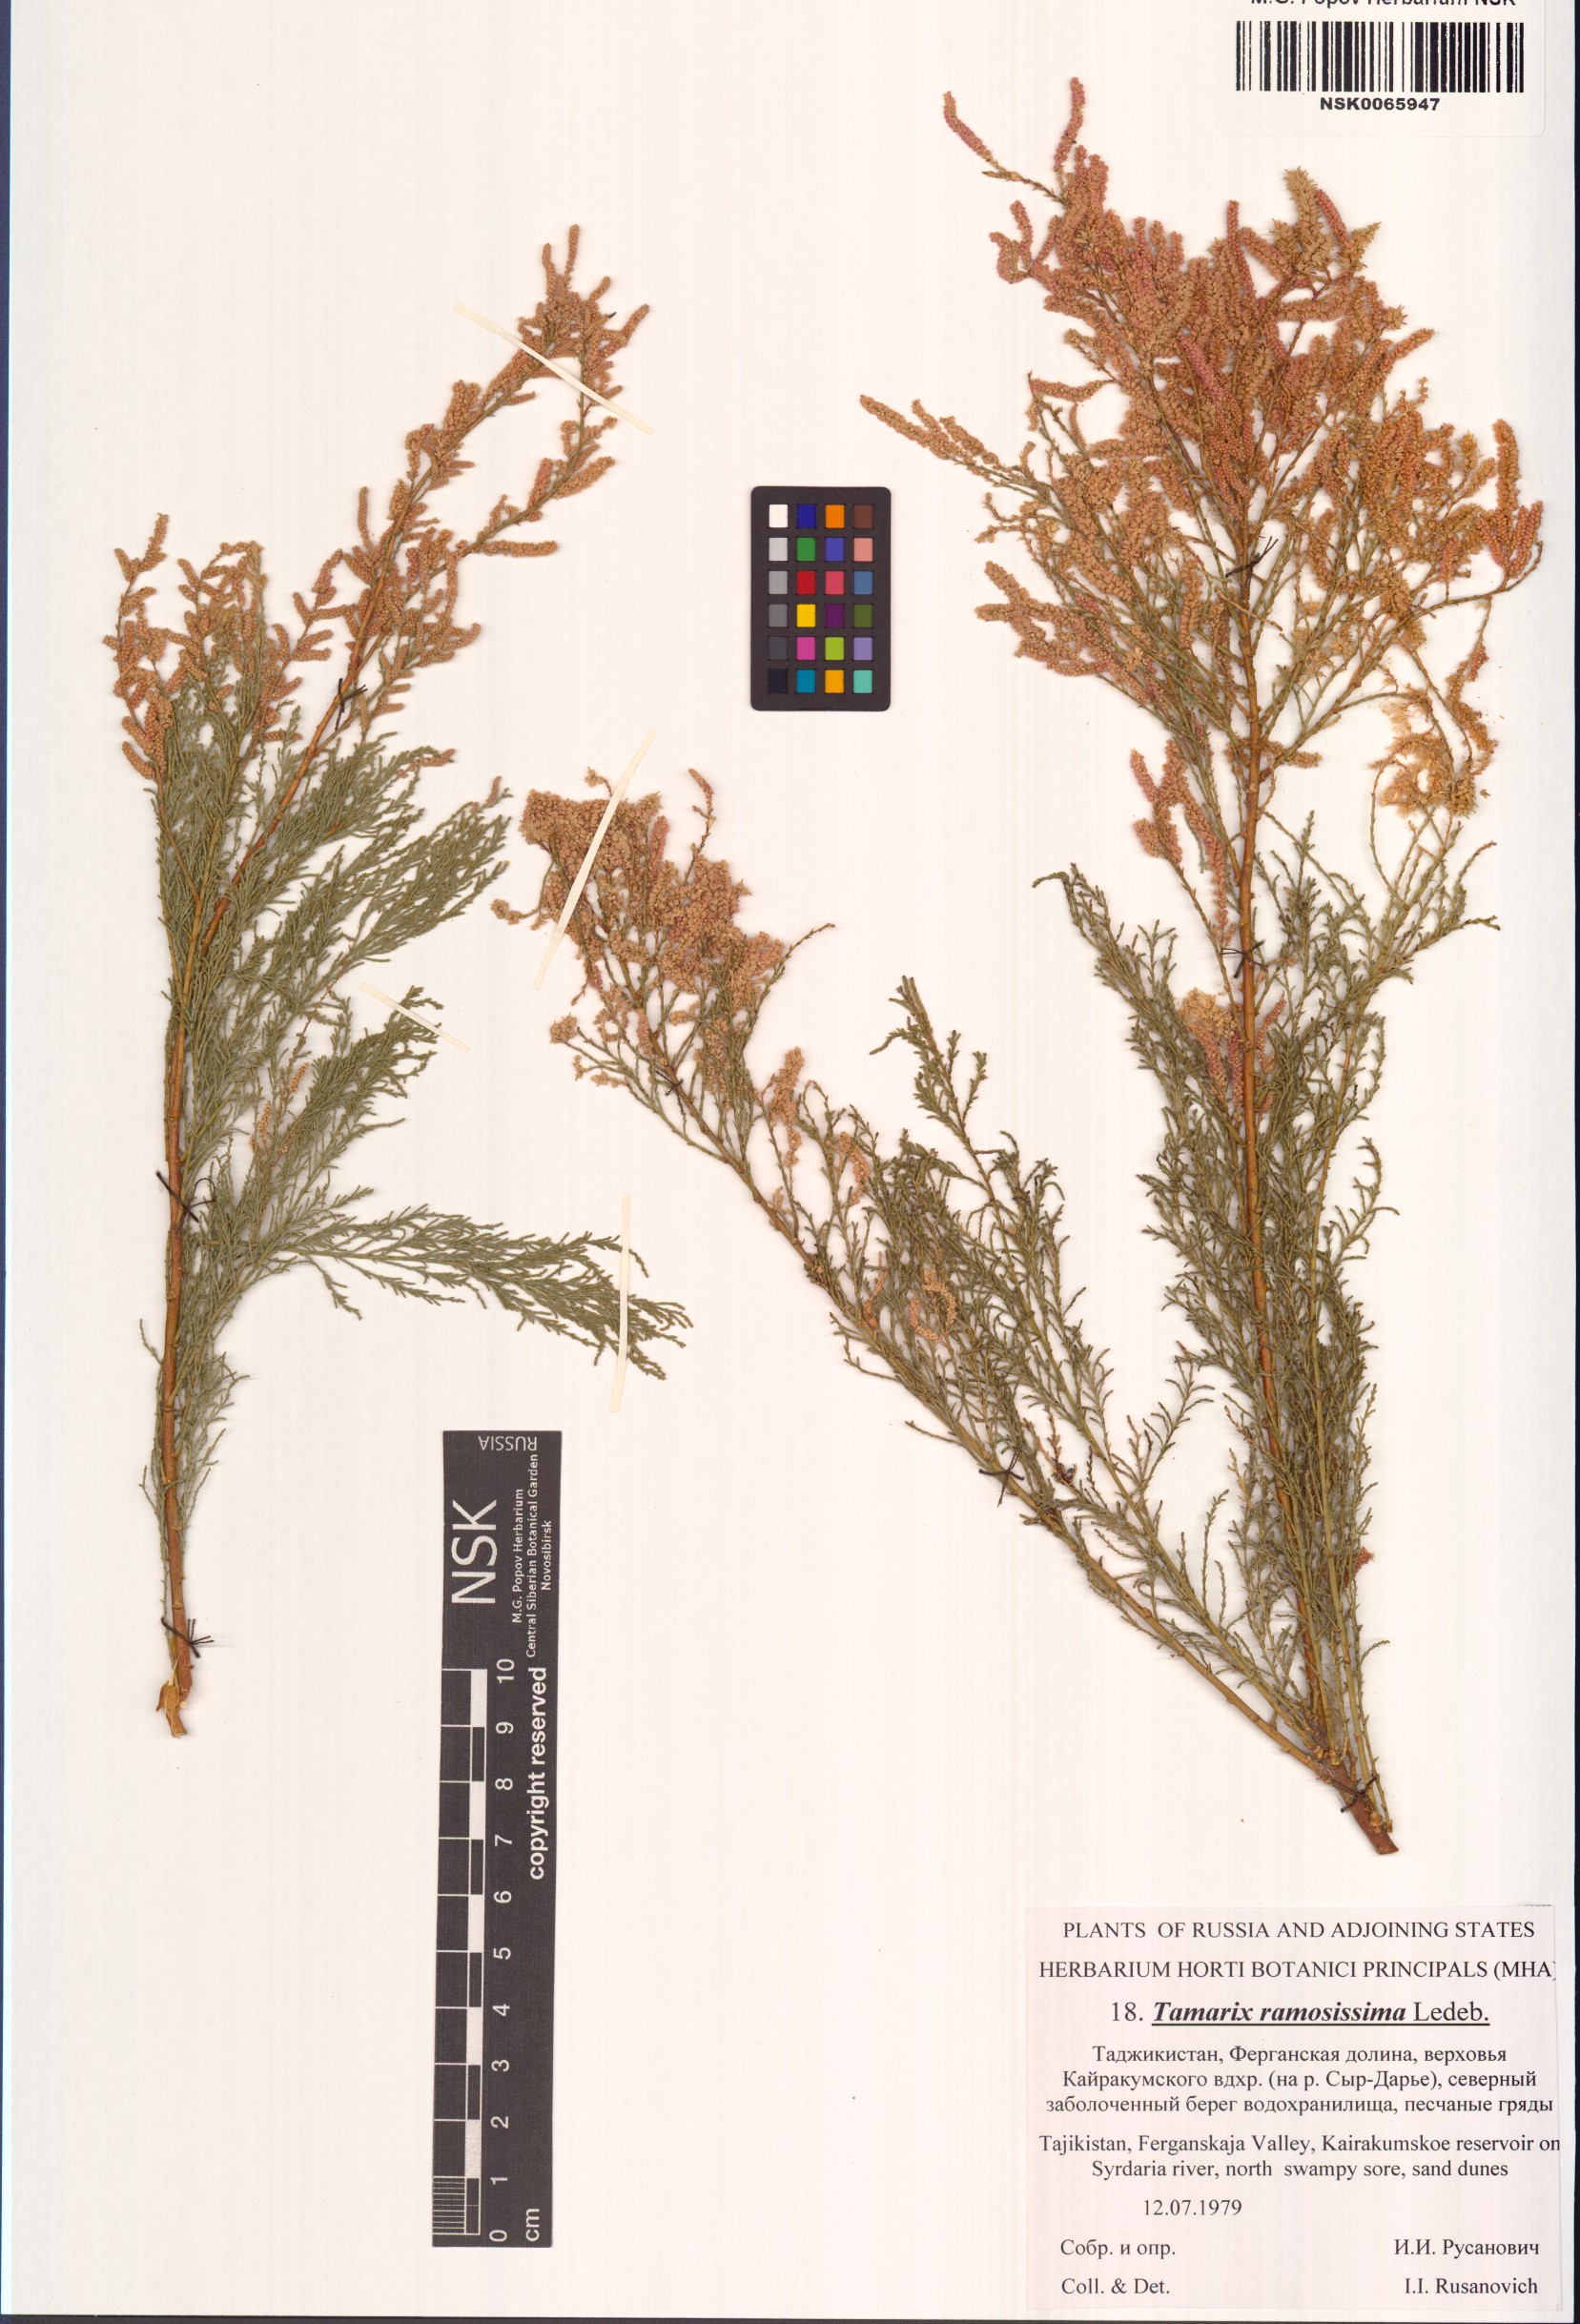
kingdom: Plantae
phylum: Tracheophyta
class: Magnoliopsida
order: Caryophyllales
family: Tamaricaceae
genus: Tamarix
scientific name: Tamarix ramosissima
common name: Pink tamarisk
